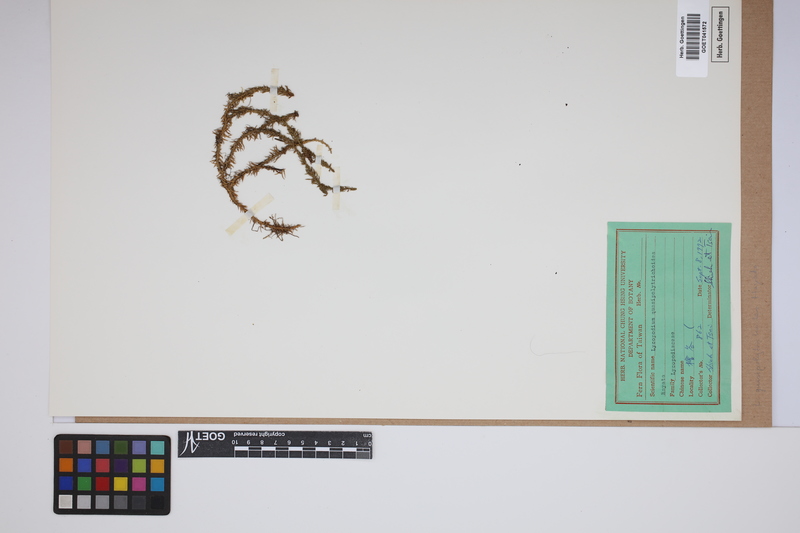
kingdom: Plantae
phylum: Tracheophyta
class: Lycopodiopsida
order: Lycopodiales
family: Lycopodiaceae
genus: Huperzia
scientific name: Huperzia quasipolytrichoides
